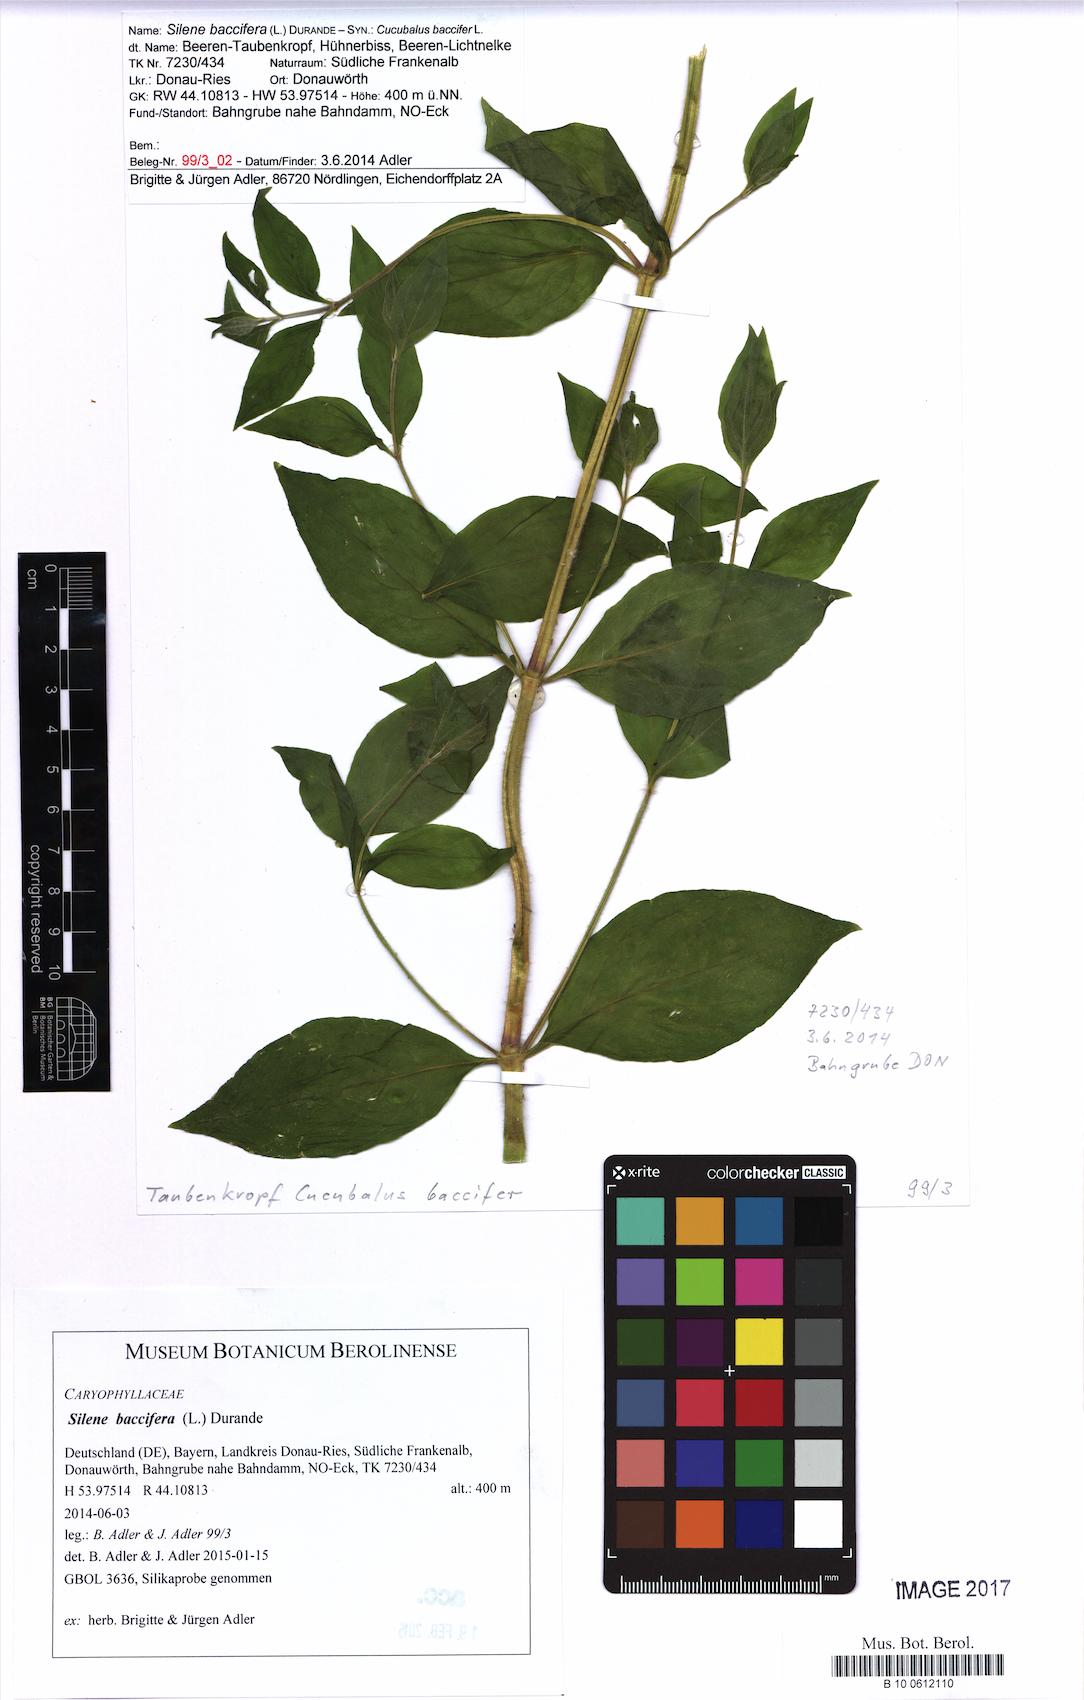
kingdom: Plantae
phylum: Tracheophyta
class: Magnoliopsida
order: Caryophyllales
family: Caryophyllaceae
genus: Silene
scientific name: Silene baccifera
